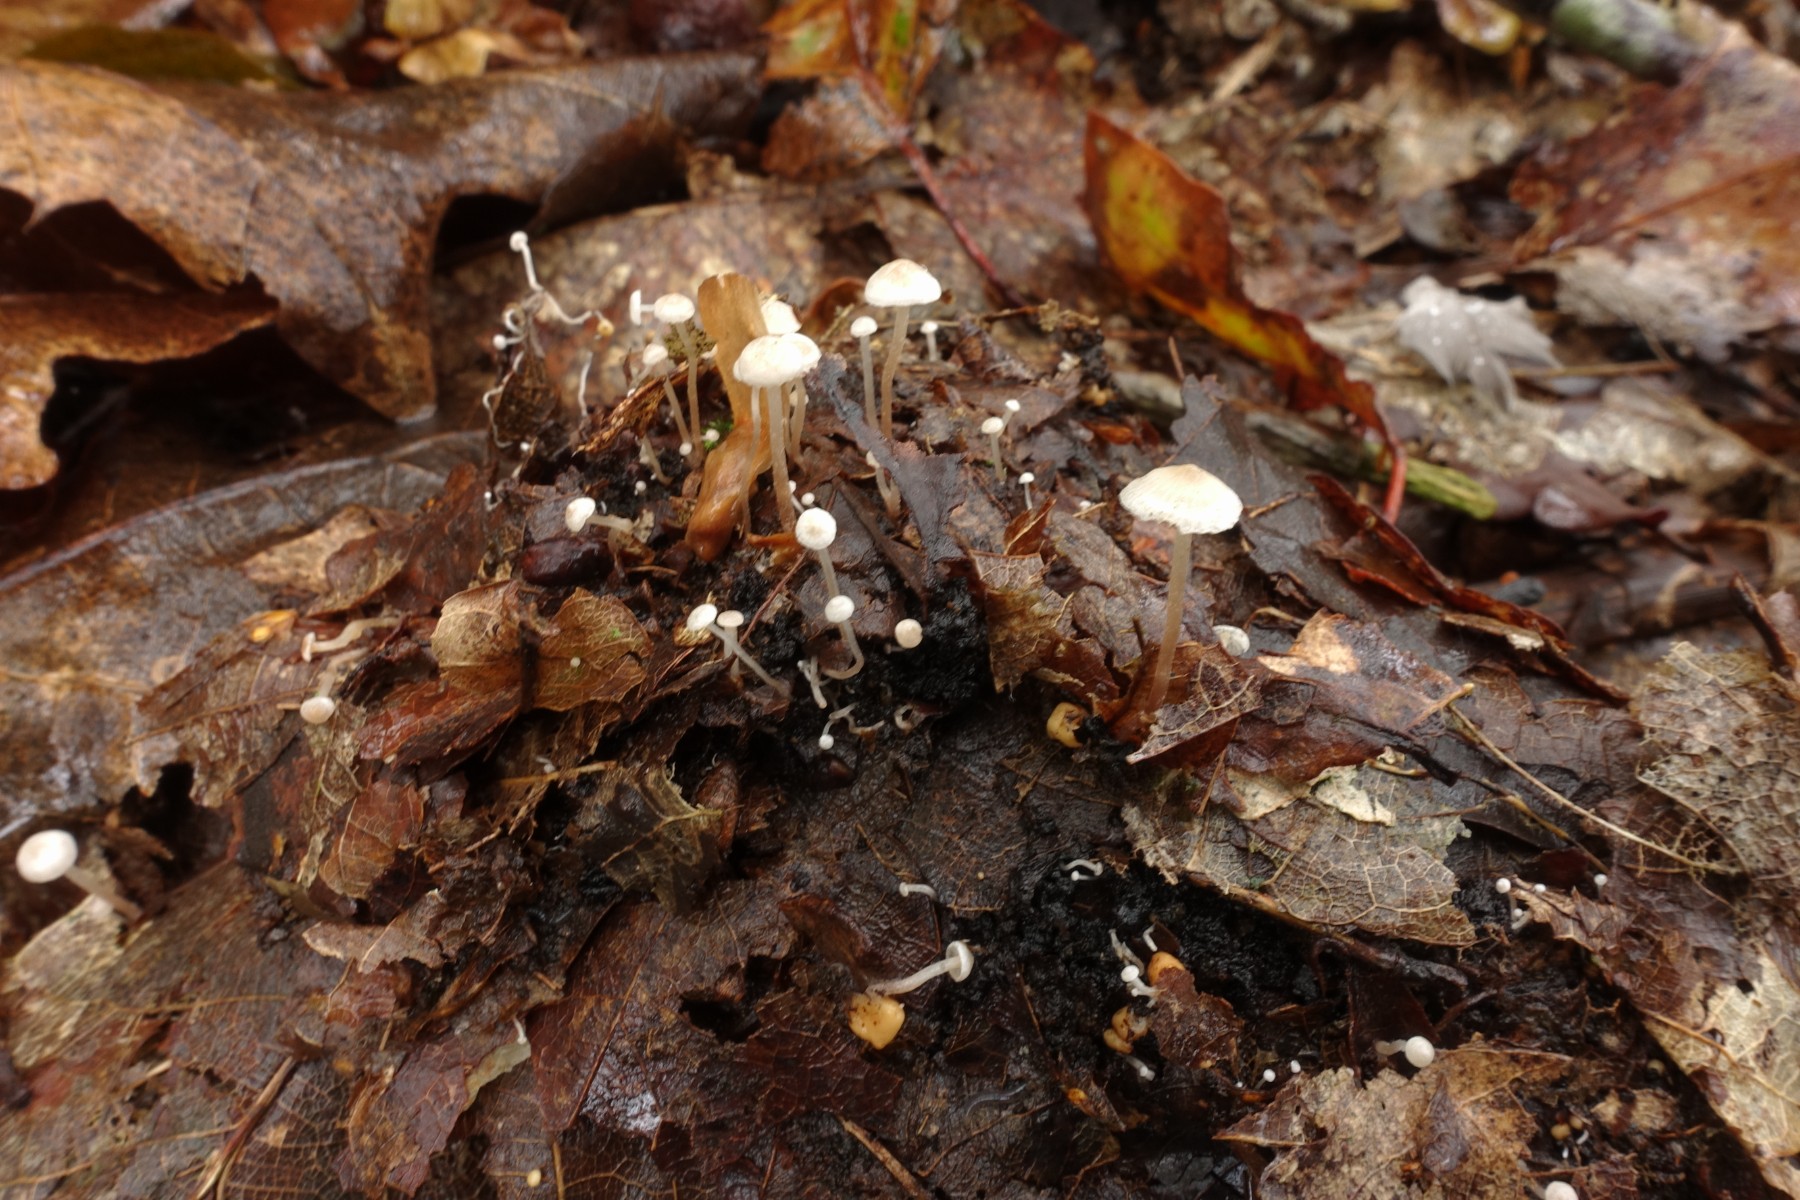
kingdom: Fungi
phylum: Basidiomycota
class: Agaricomycetes
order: Agaricales
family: Tricholomataceae
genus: Collybia
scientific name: Collybia cookei
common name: gulknoldet lighat
